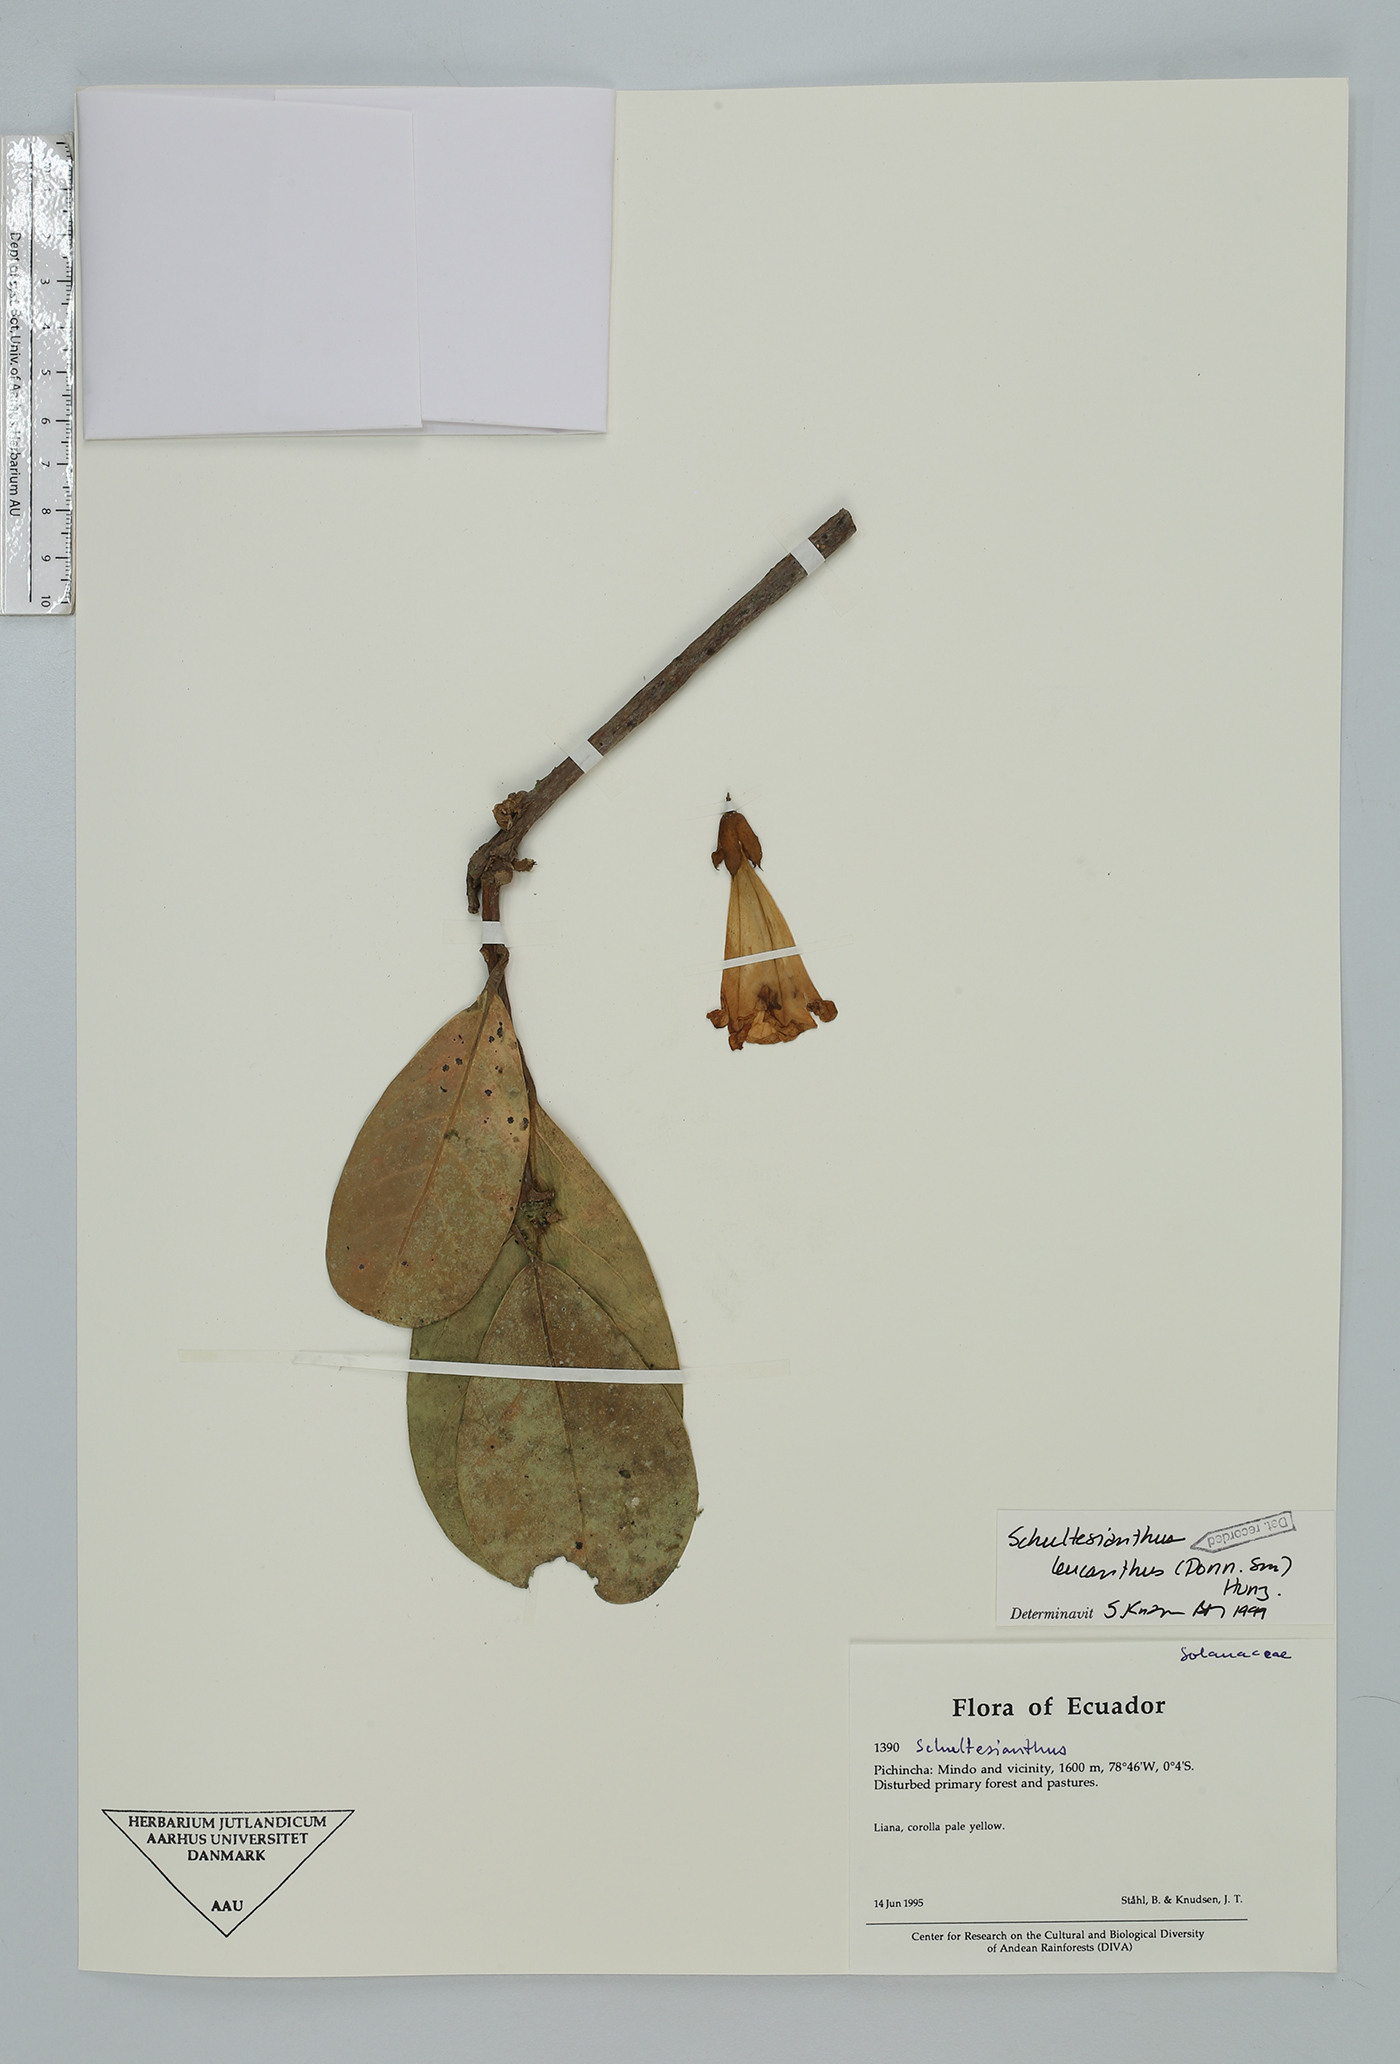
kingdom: Plantae
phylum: Tracheophyta
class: Magnoliopsida
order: Solanales
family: Solanaceae
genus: Schultesianthus
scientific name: Schultesianthus leucanthus
